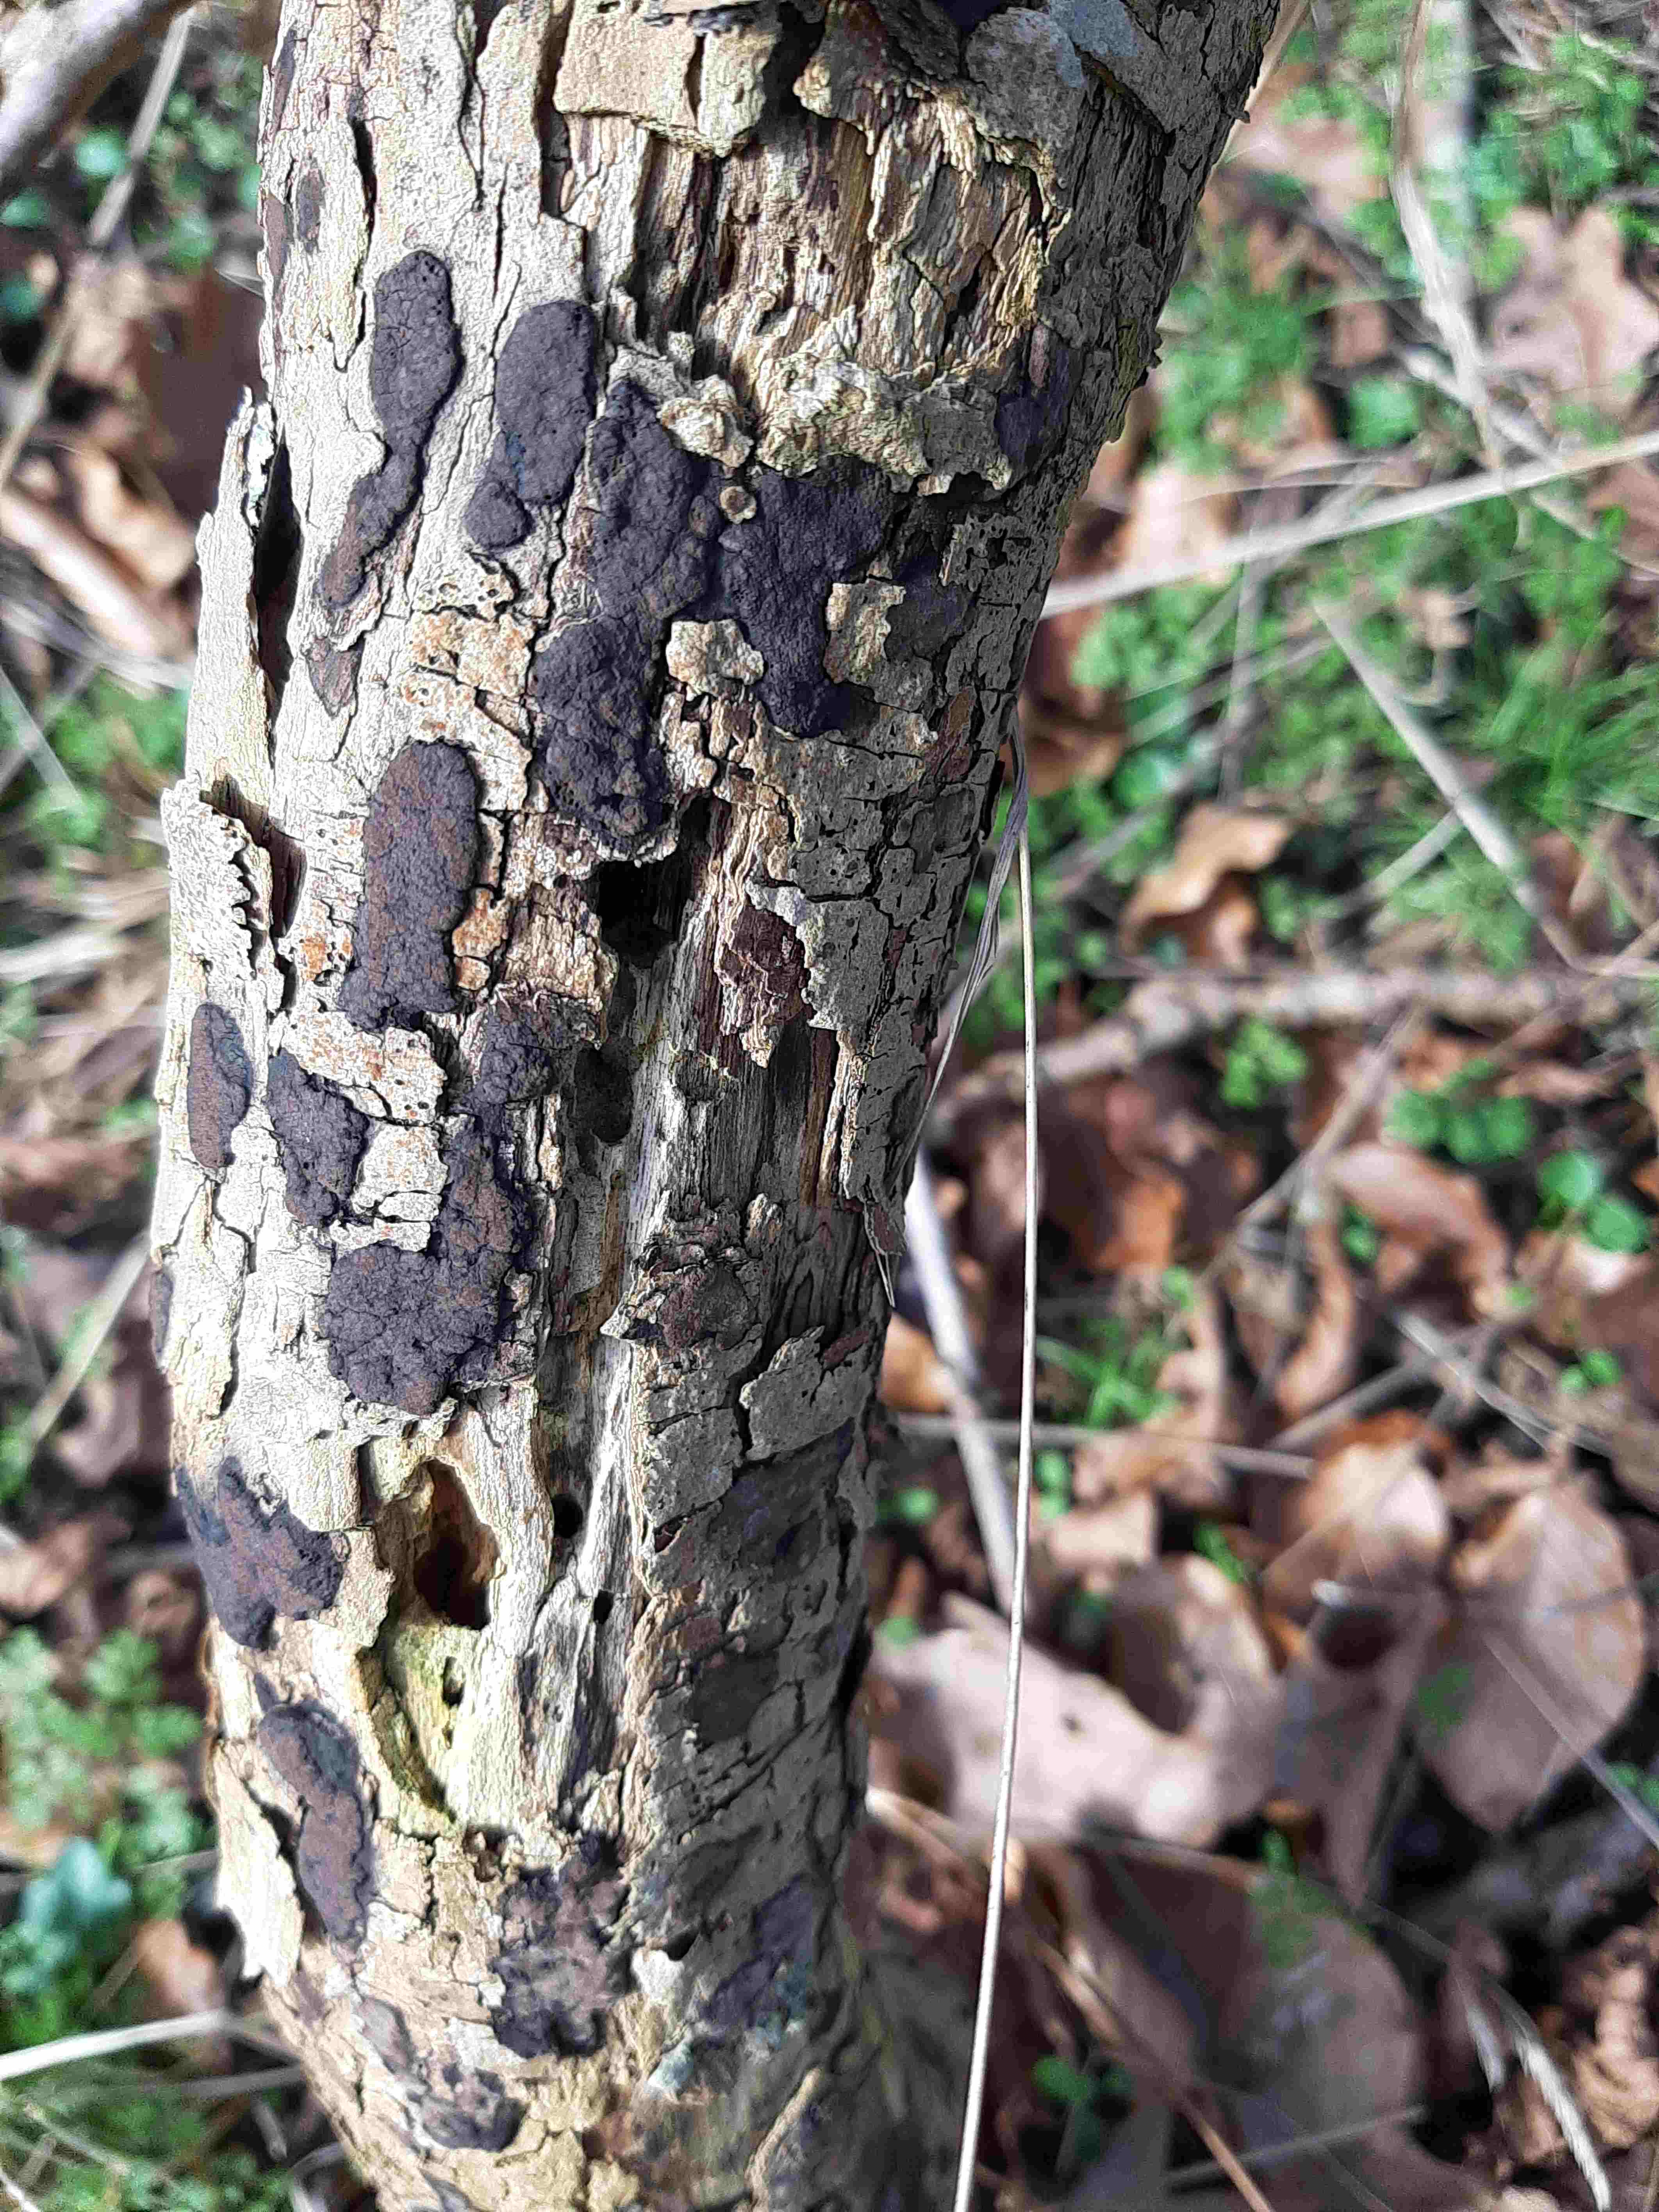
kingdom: Fungi
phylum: Ascomycota
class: Sordariomycetes
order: Xylariales
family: Hypoxylaceae
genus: Hypoxylon
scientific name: Hypoxylon
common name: kulbær
